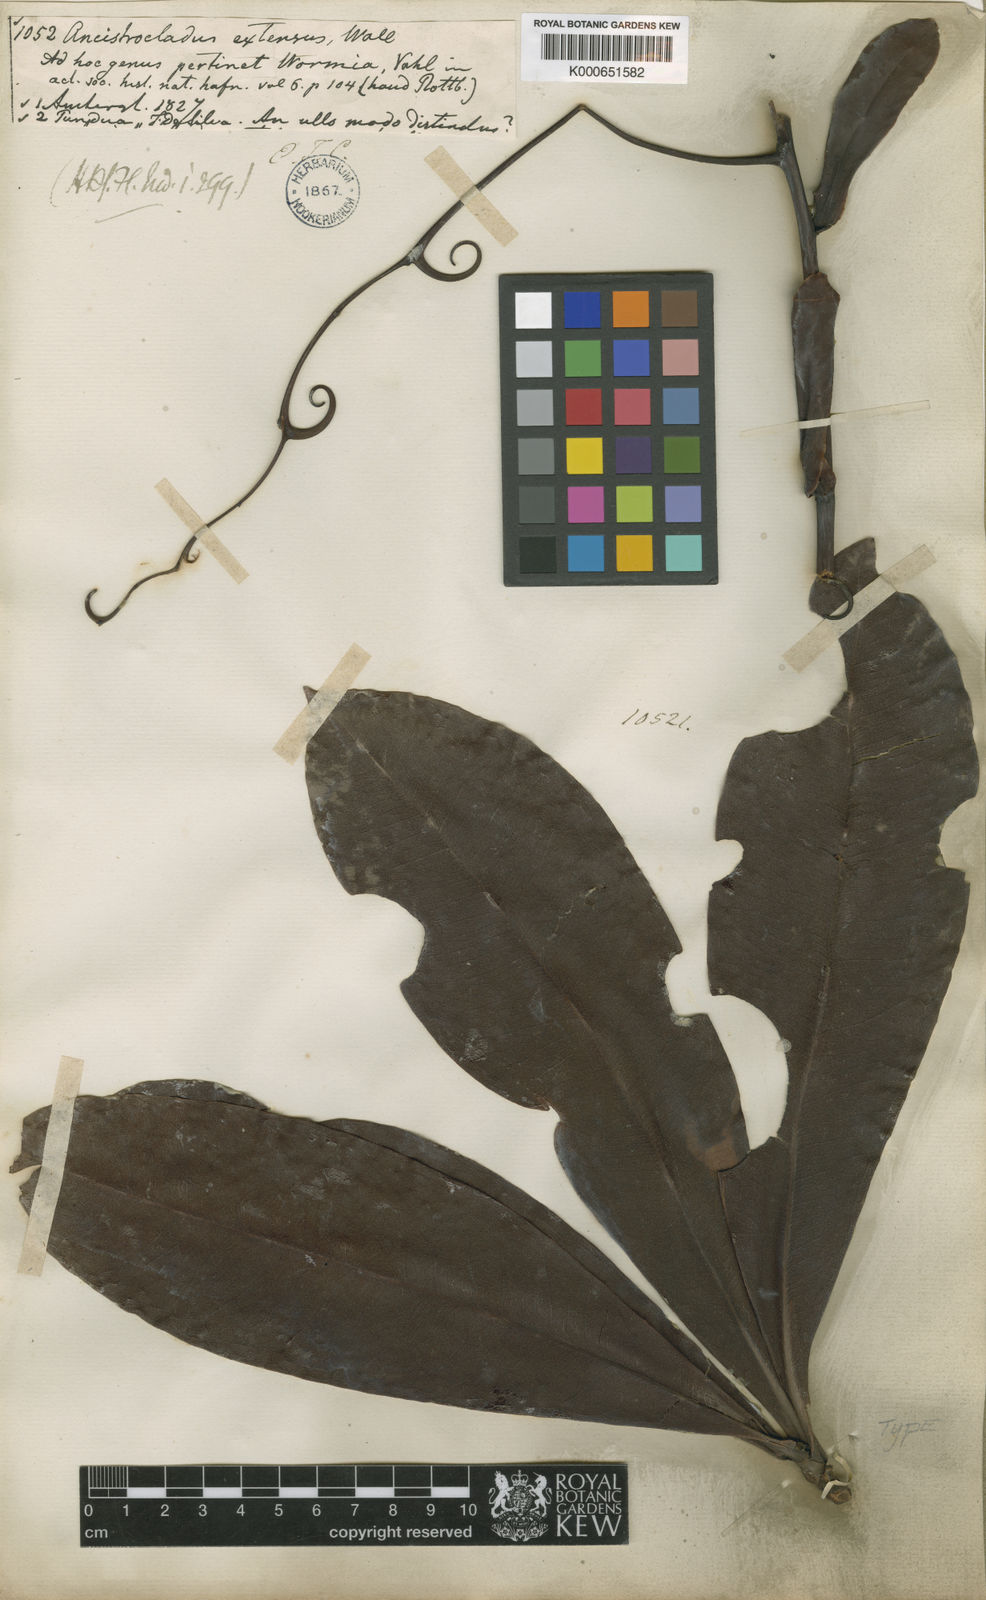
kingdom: Plantae
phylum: Tracheophyta
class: Magnoliopsida
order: Caryophyllales
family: Ancistrocladaceae
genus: Ancistrocladus
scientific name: Ancistrocladus tectorius
